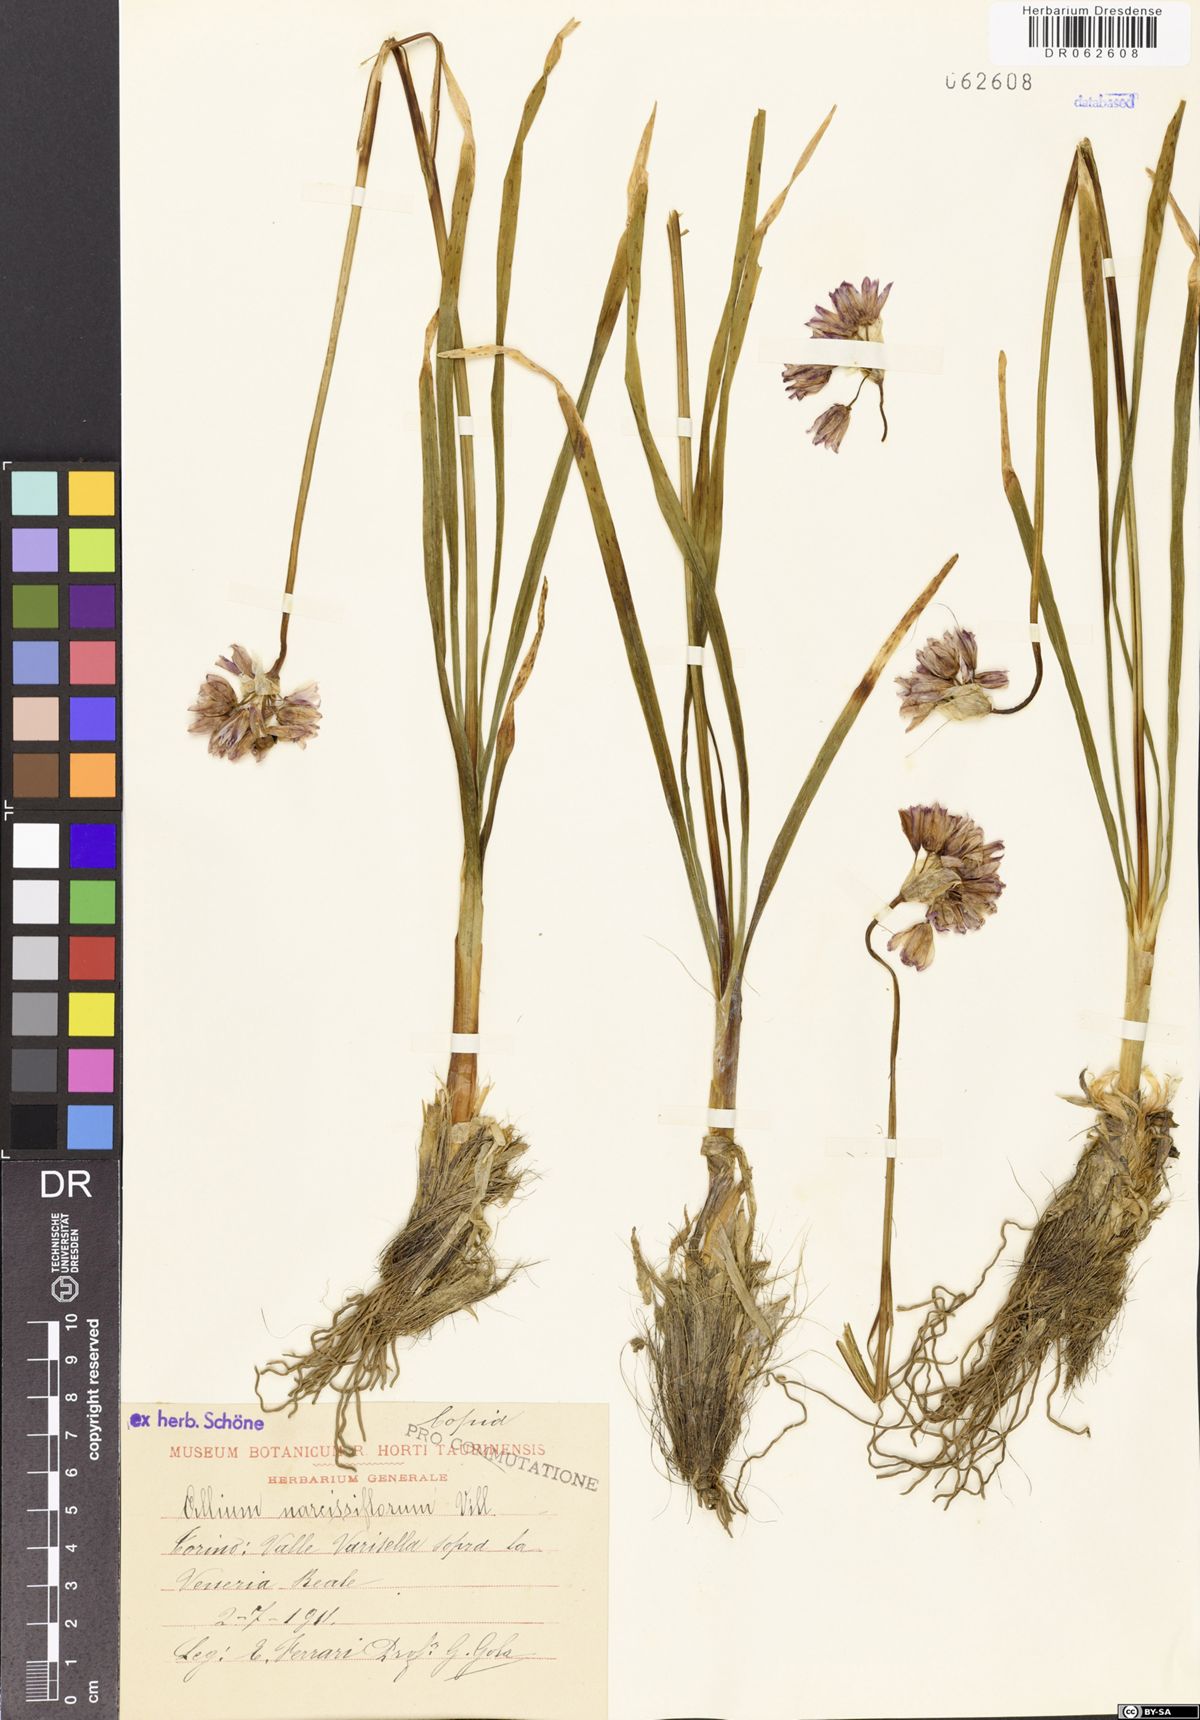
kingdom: Plantae
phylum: Tracheophyta
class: Liliopsida
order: Asparagales
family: Amaryllidaceae
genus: Allium
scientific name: Allium narcissiflorum
